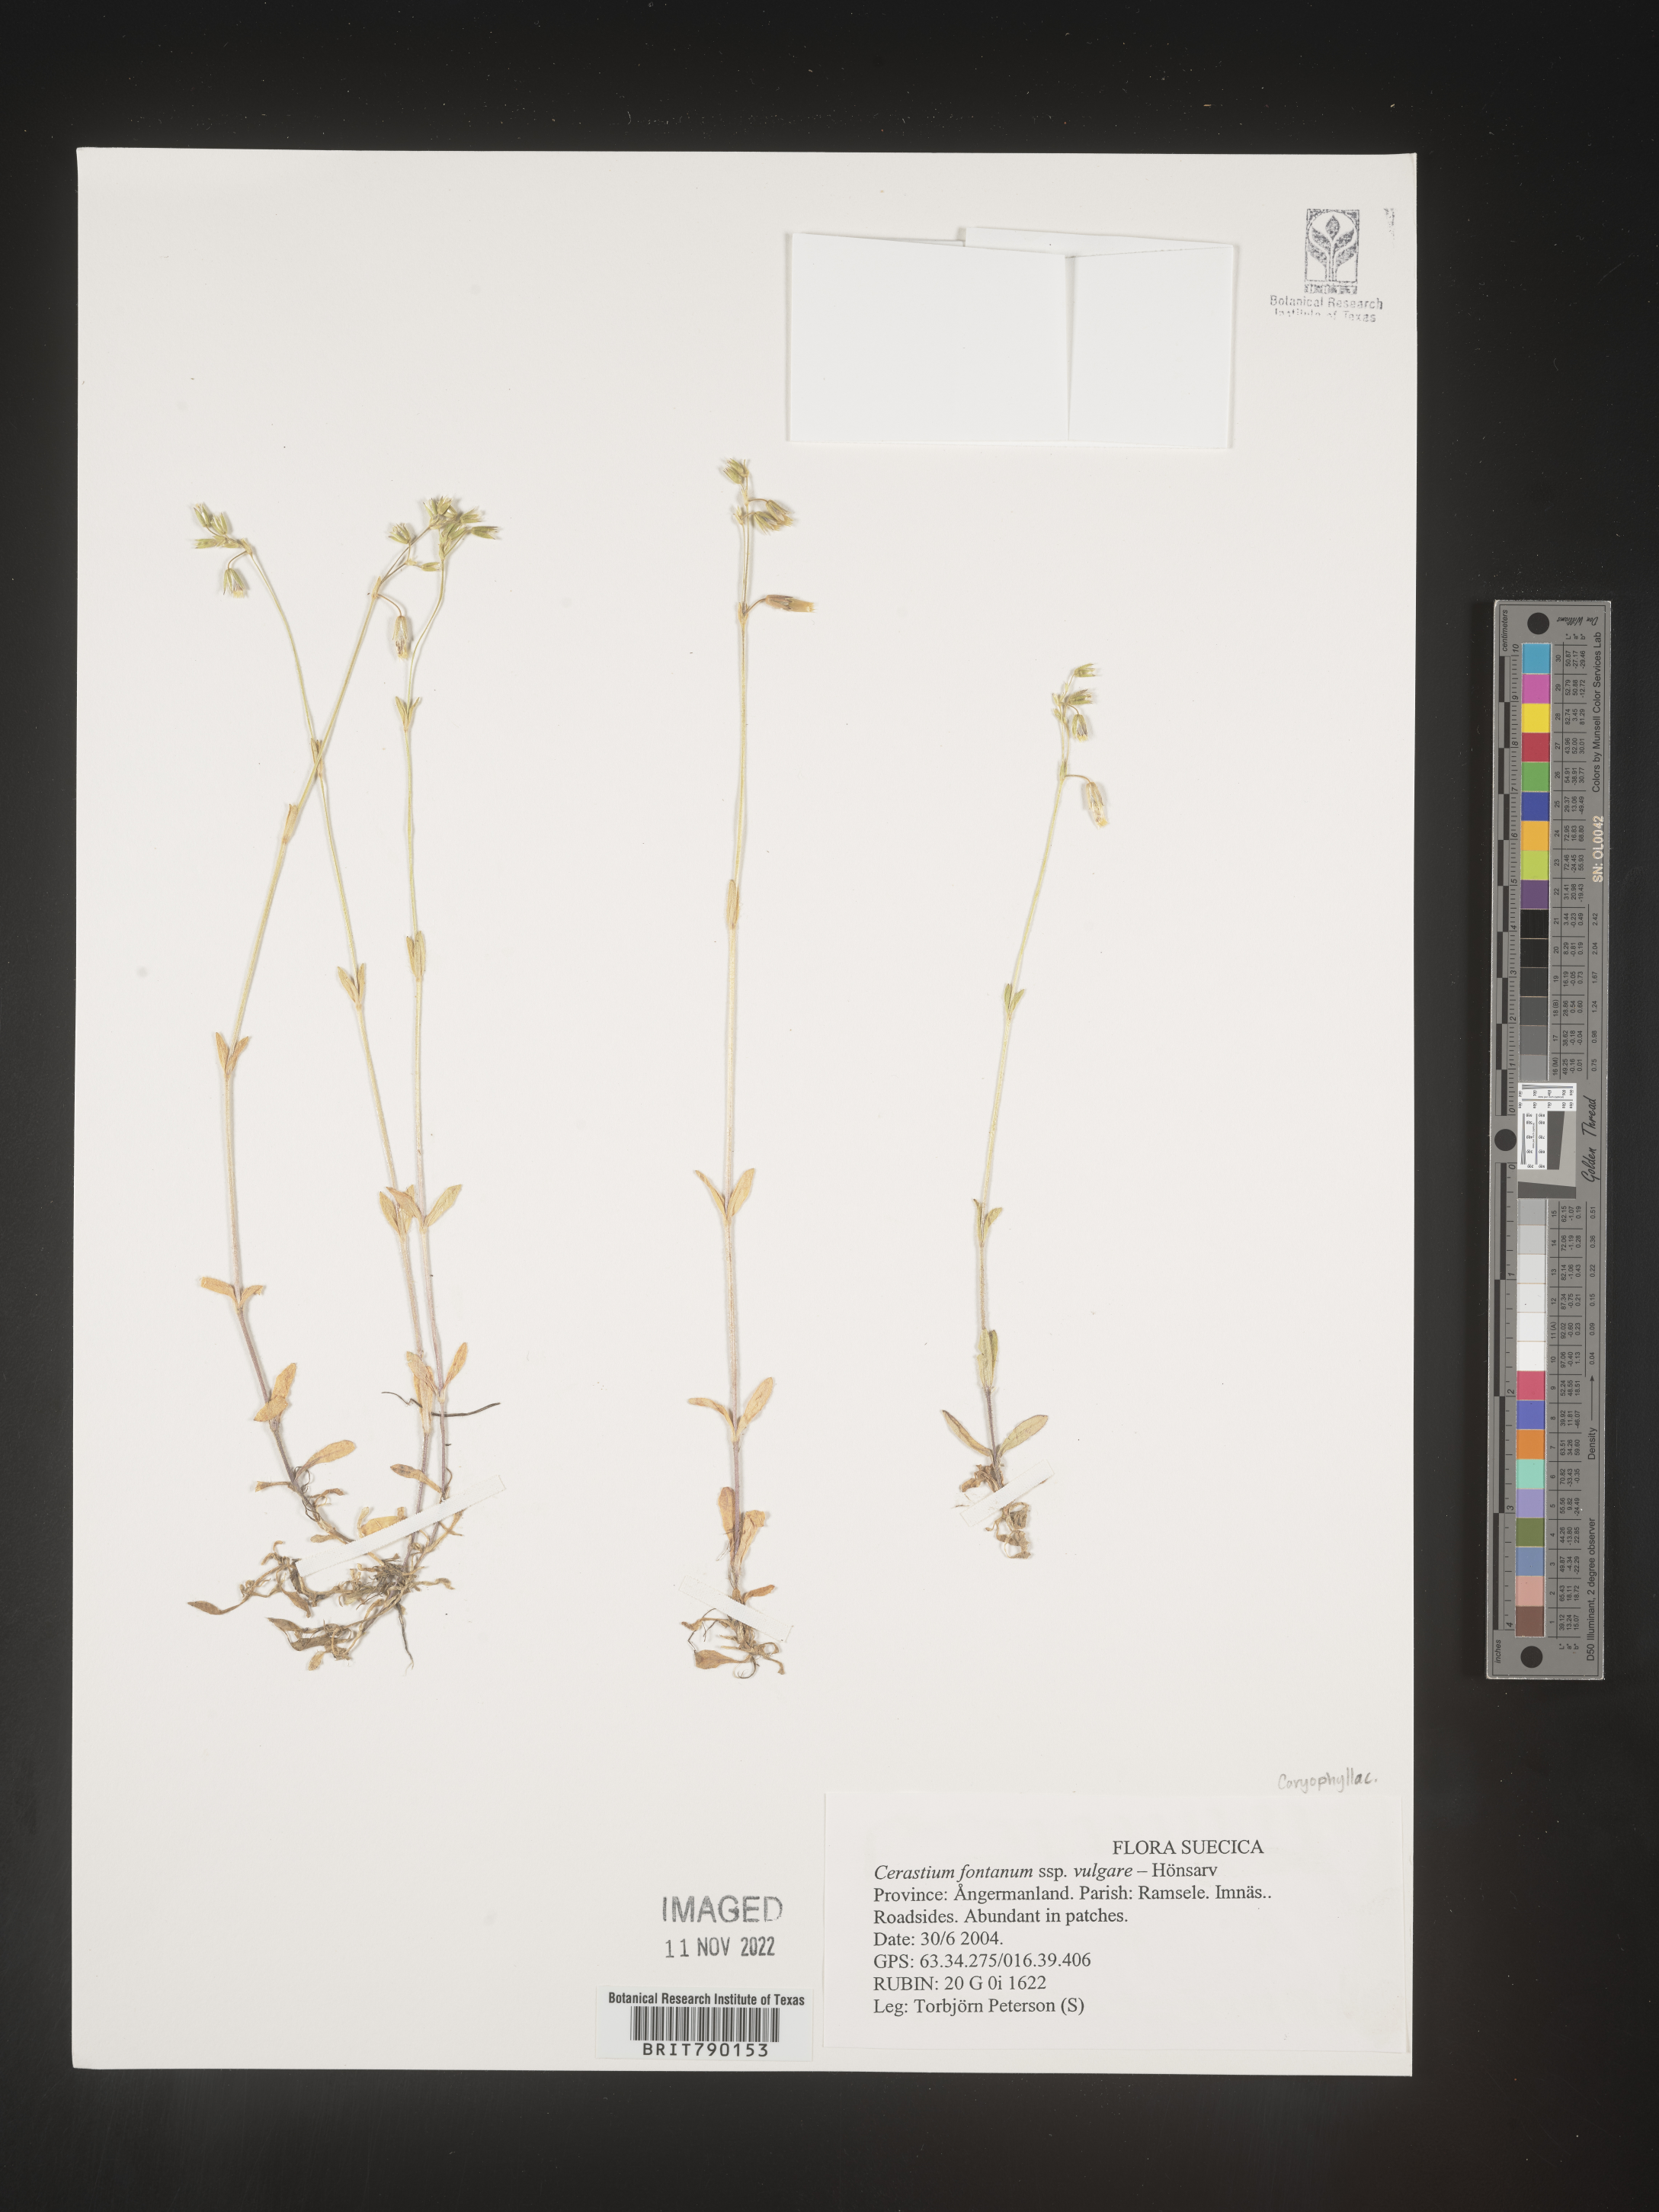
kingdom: Plantae
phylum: Tracheophyta
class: Magnoliopsida
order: Caryophyllales
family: Caryophyllaceae
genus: Cerastium
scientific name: Cerastium
